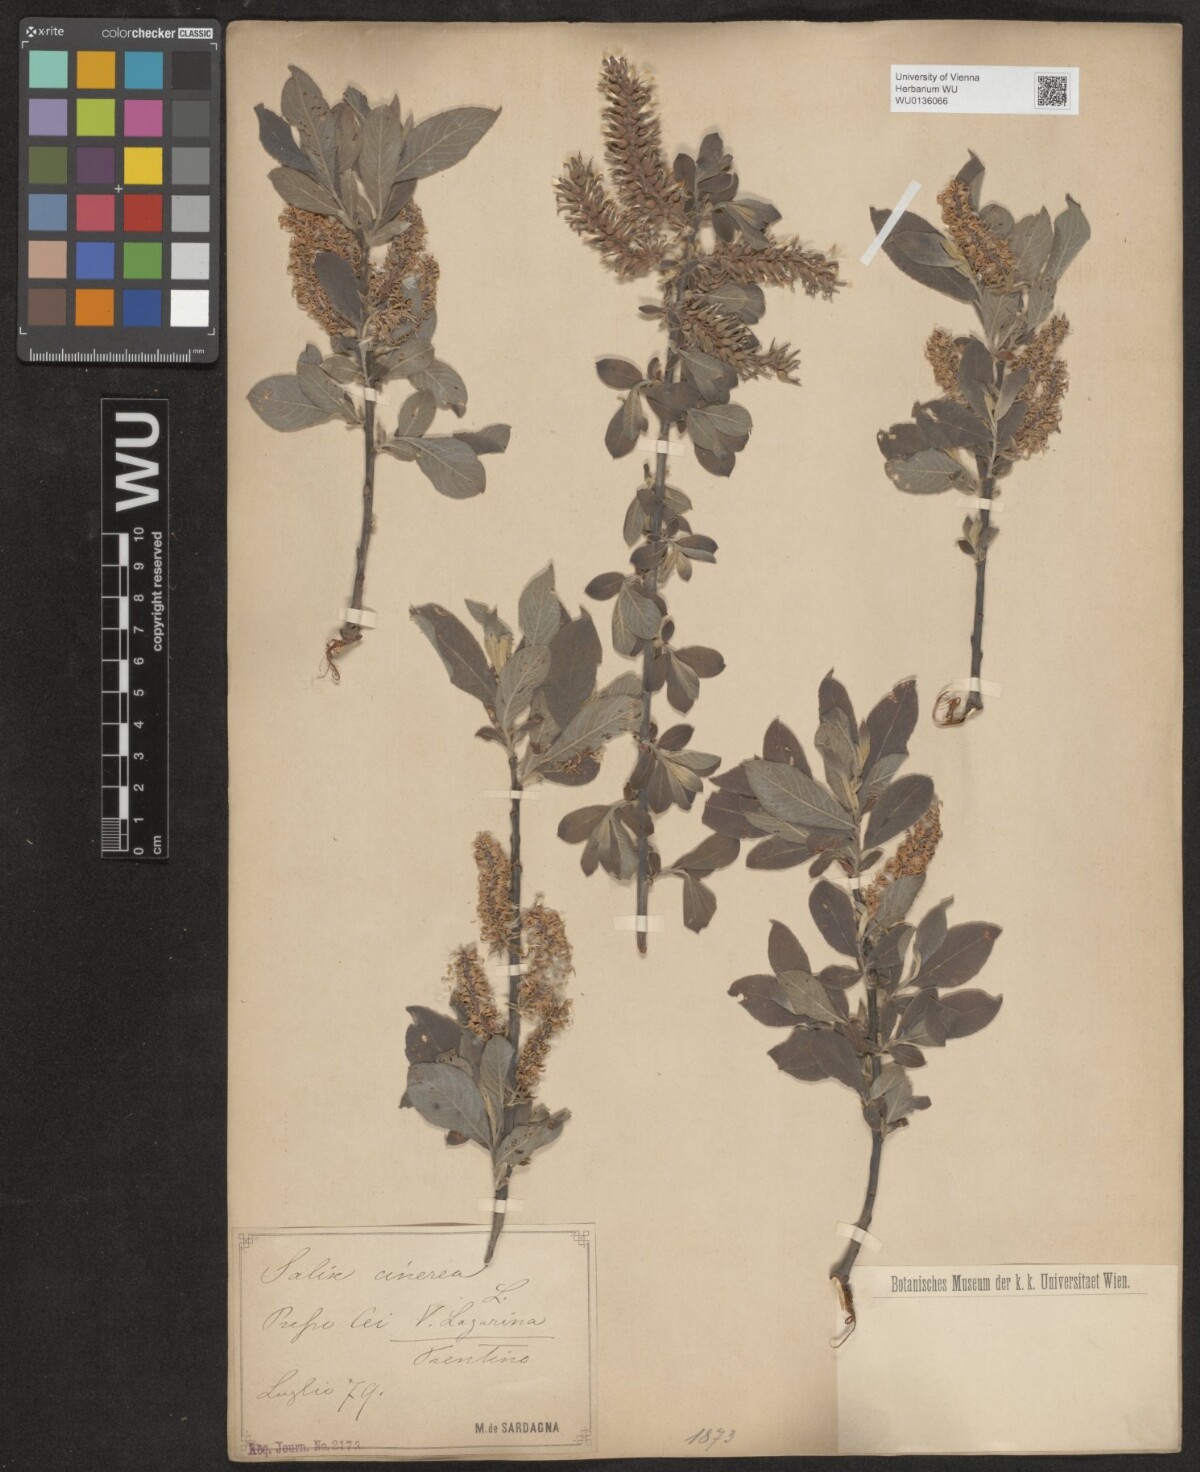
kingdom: Plantae
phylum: Tracheophyta
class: Magnoliopsida
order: Malpighiales
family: Salicaceae
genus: Salix
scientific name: Salix cinerea
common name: Common sallow
